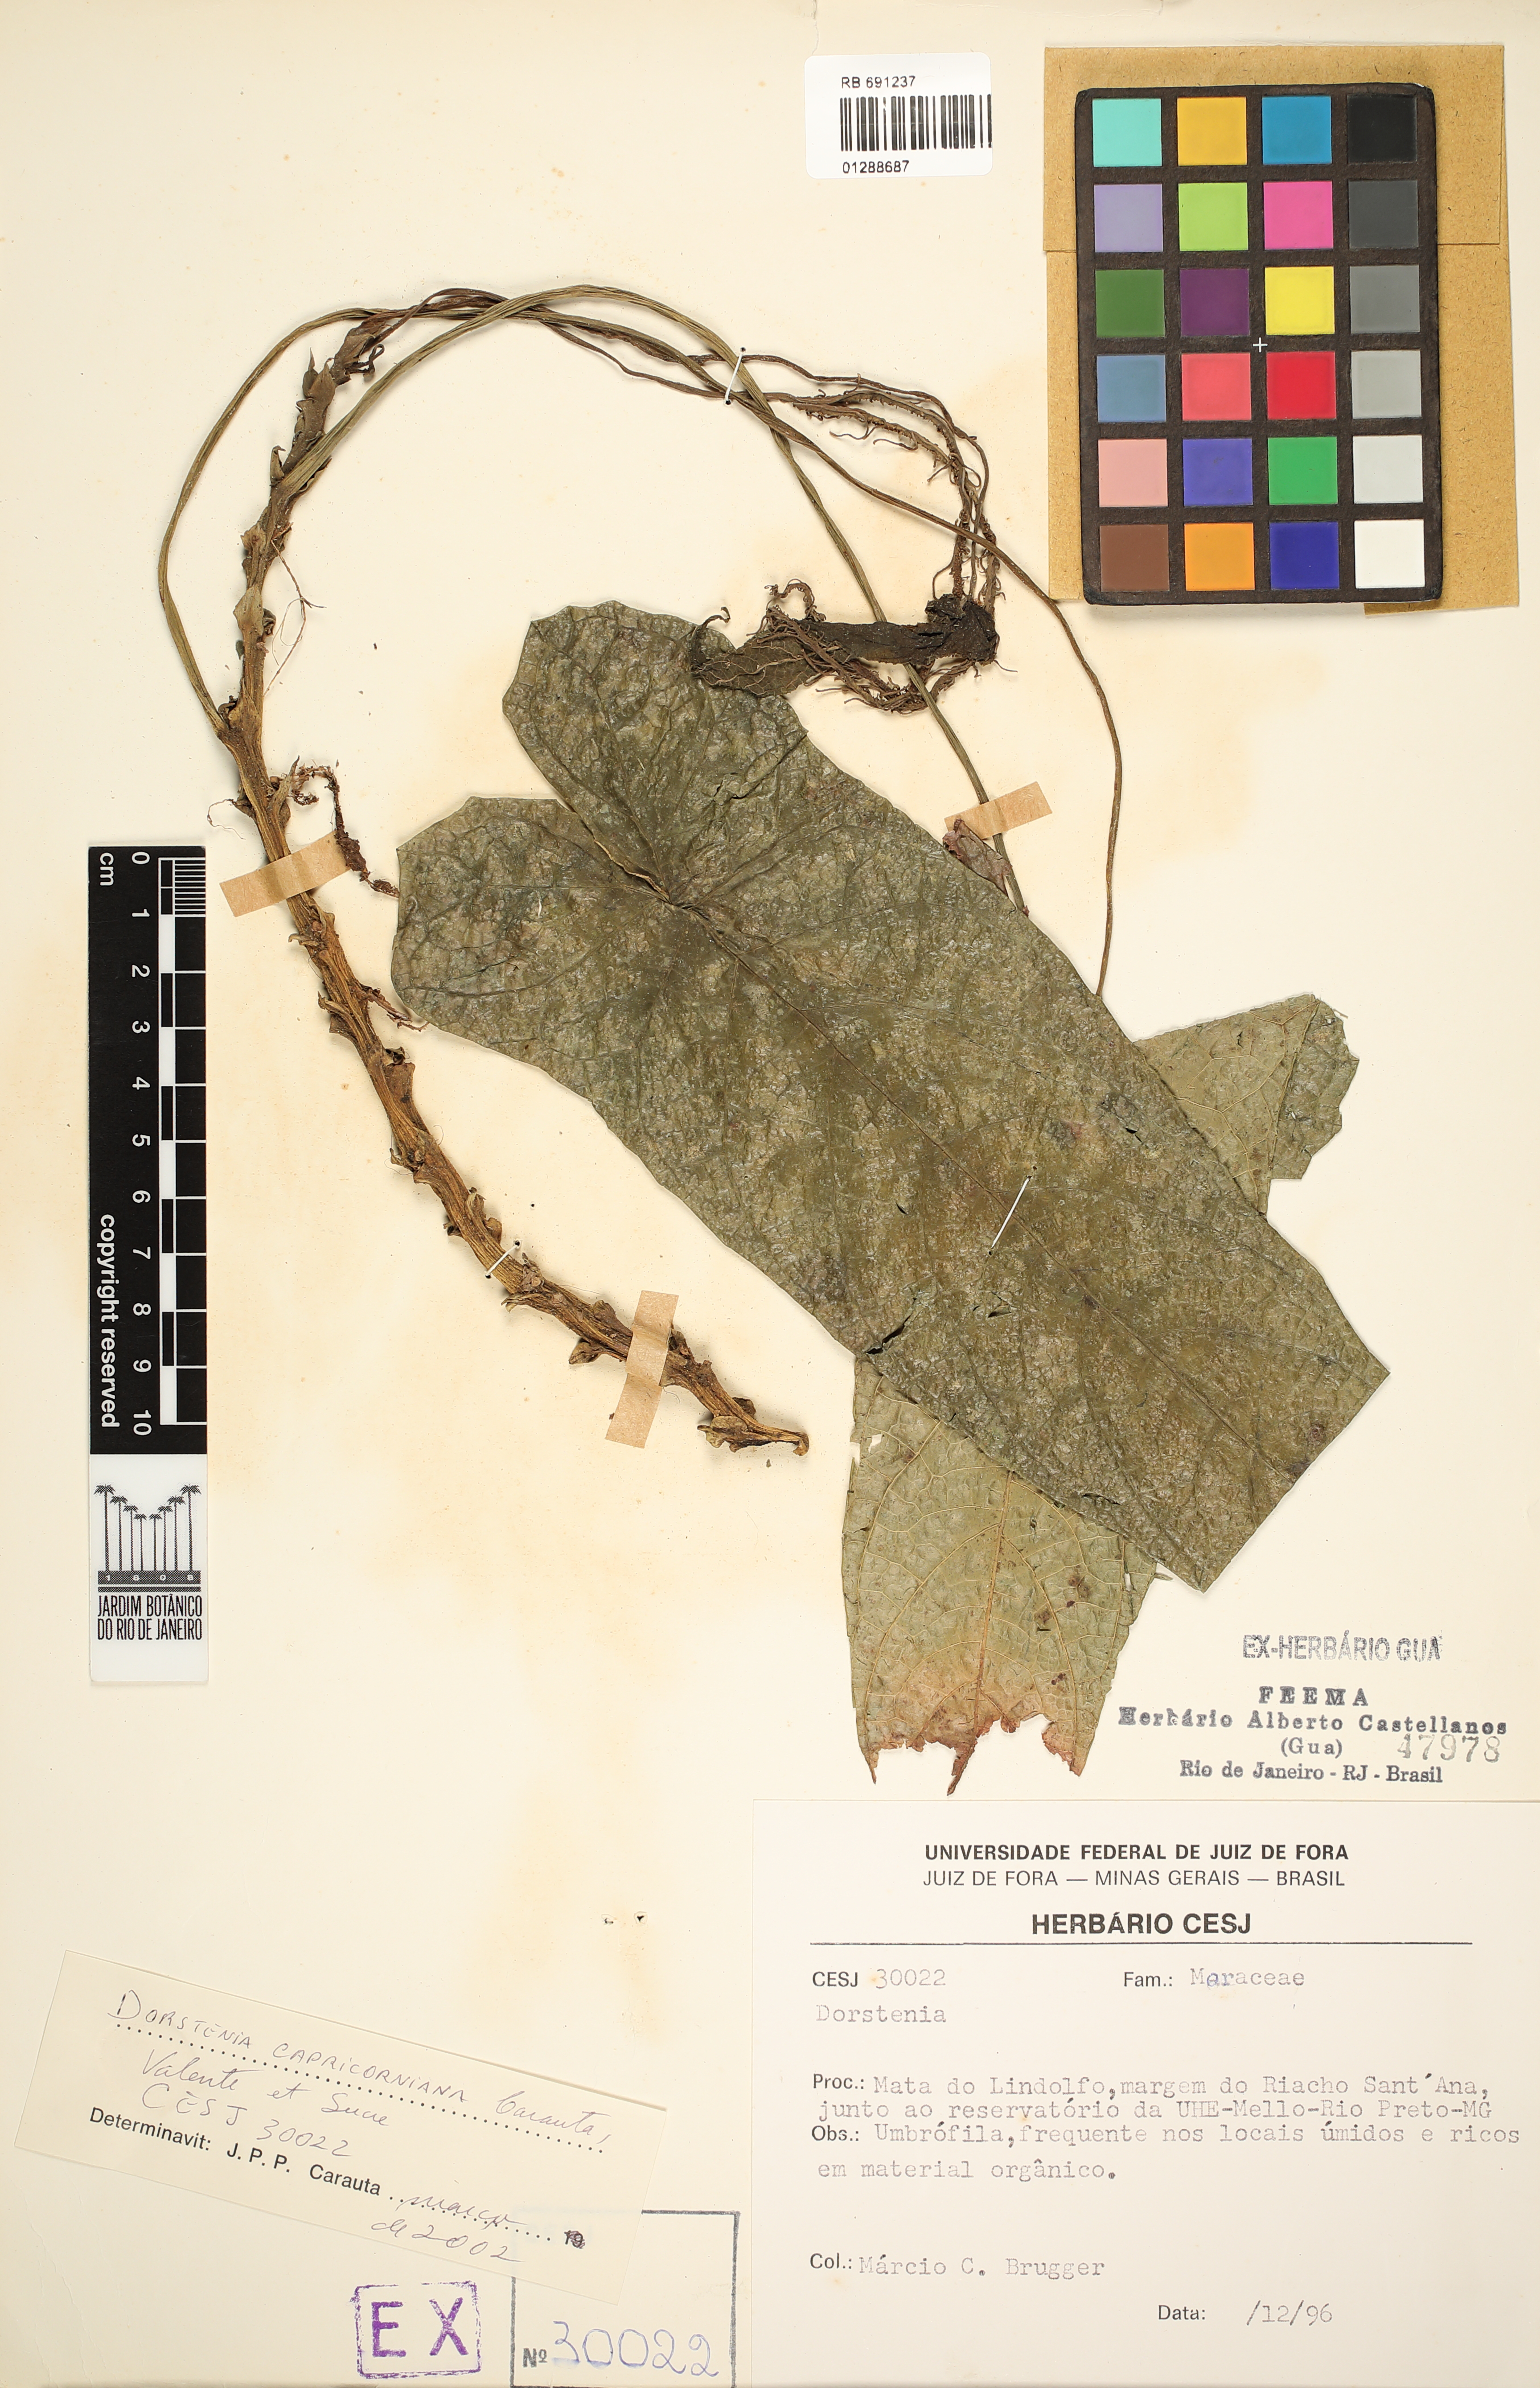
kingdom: Plantae
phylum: Tracheophyta
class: Magnoliopsida
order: Rosales
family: Moraceae
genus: Dorstenia
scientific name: Dorstenia capricorniana
